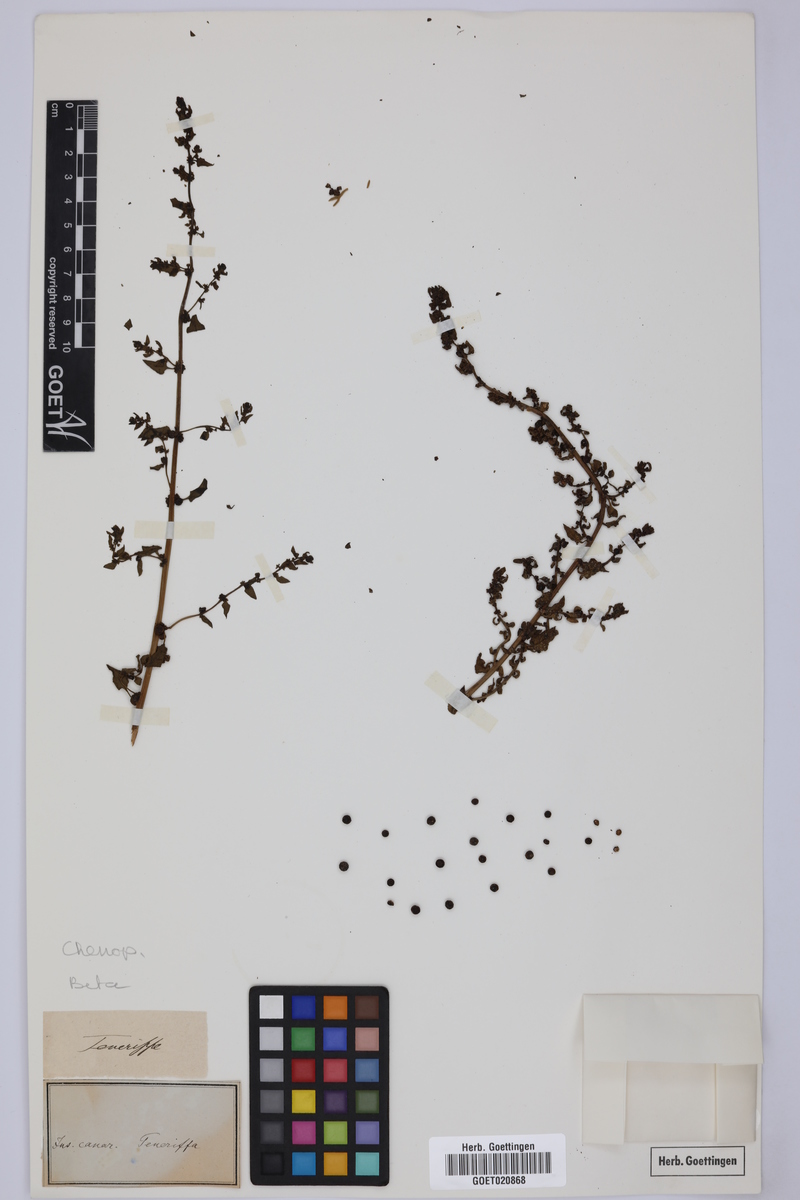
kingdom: Plantae
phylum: Tracheophyta
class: Magnoliopsida
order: Caryophyllales
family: Amaranthaceae
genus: Beta
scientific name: Beta
